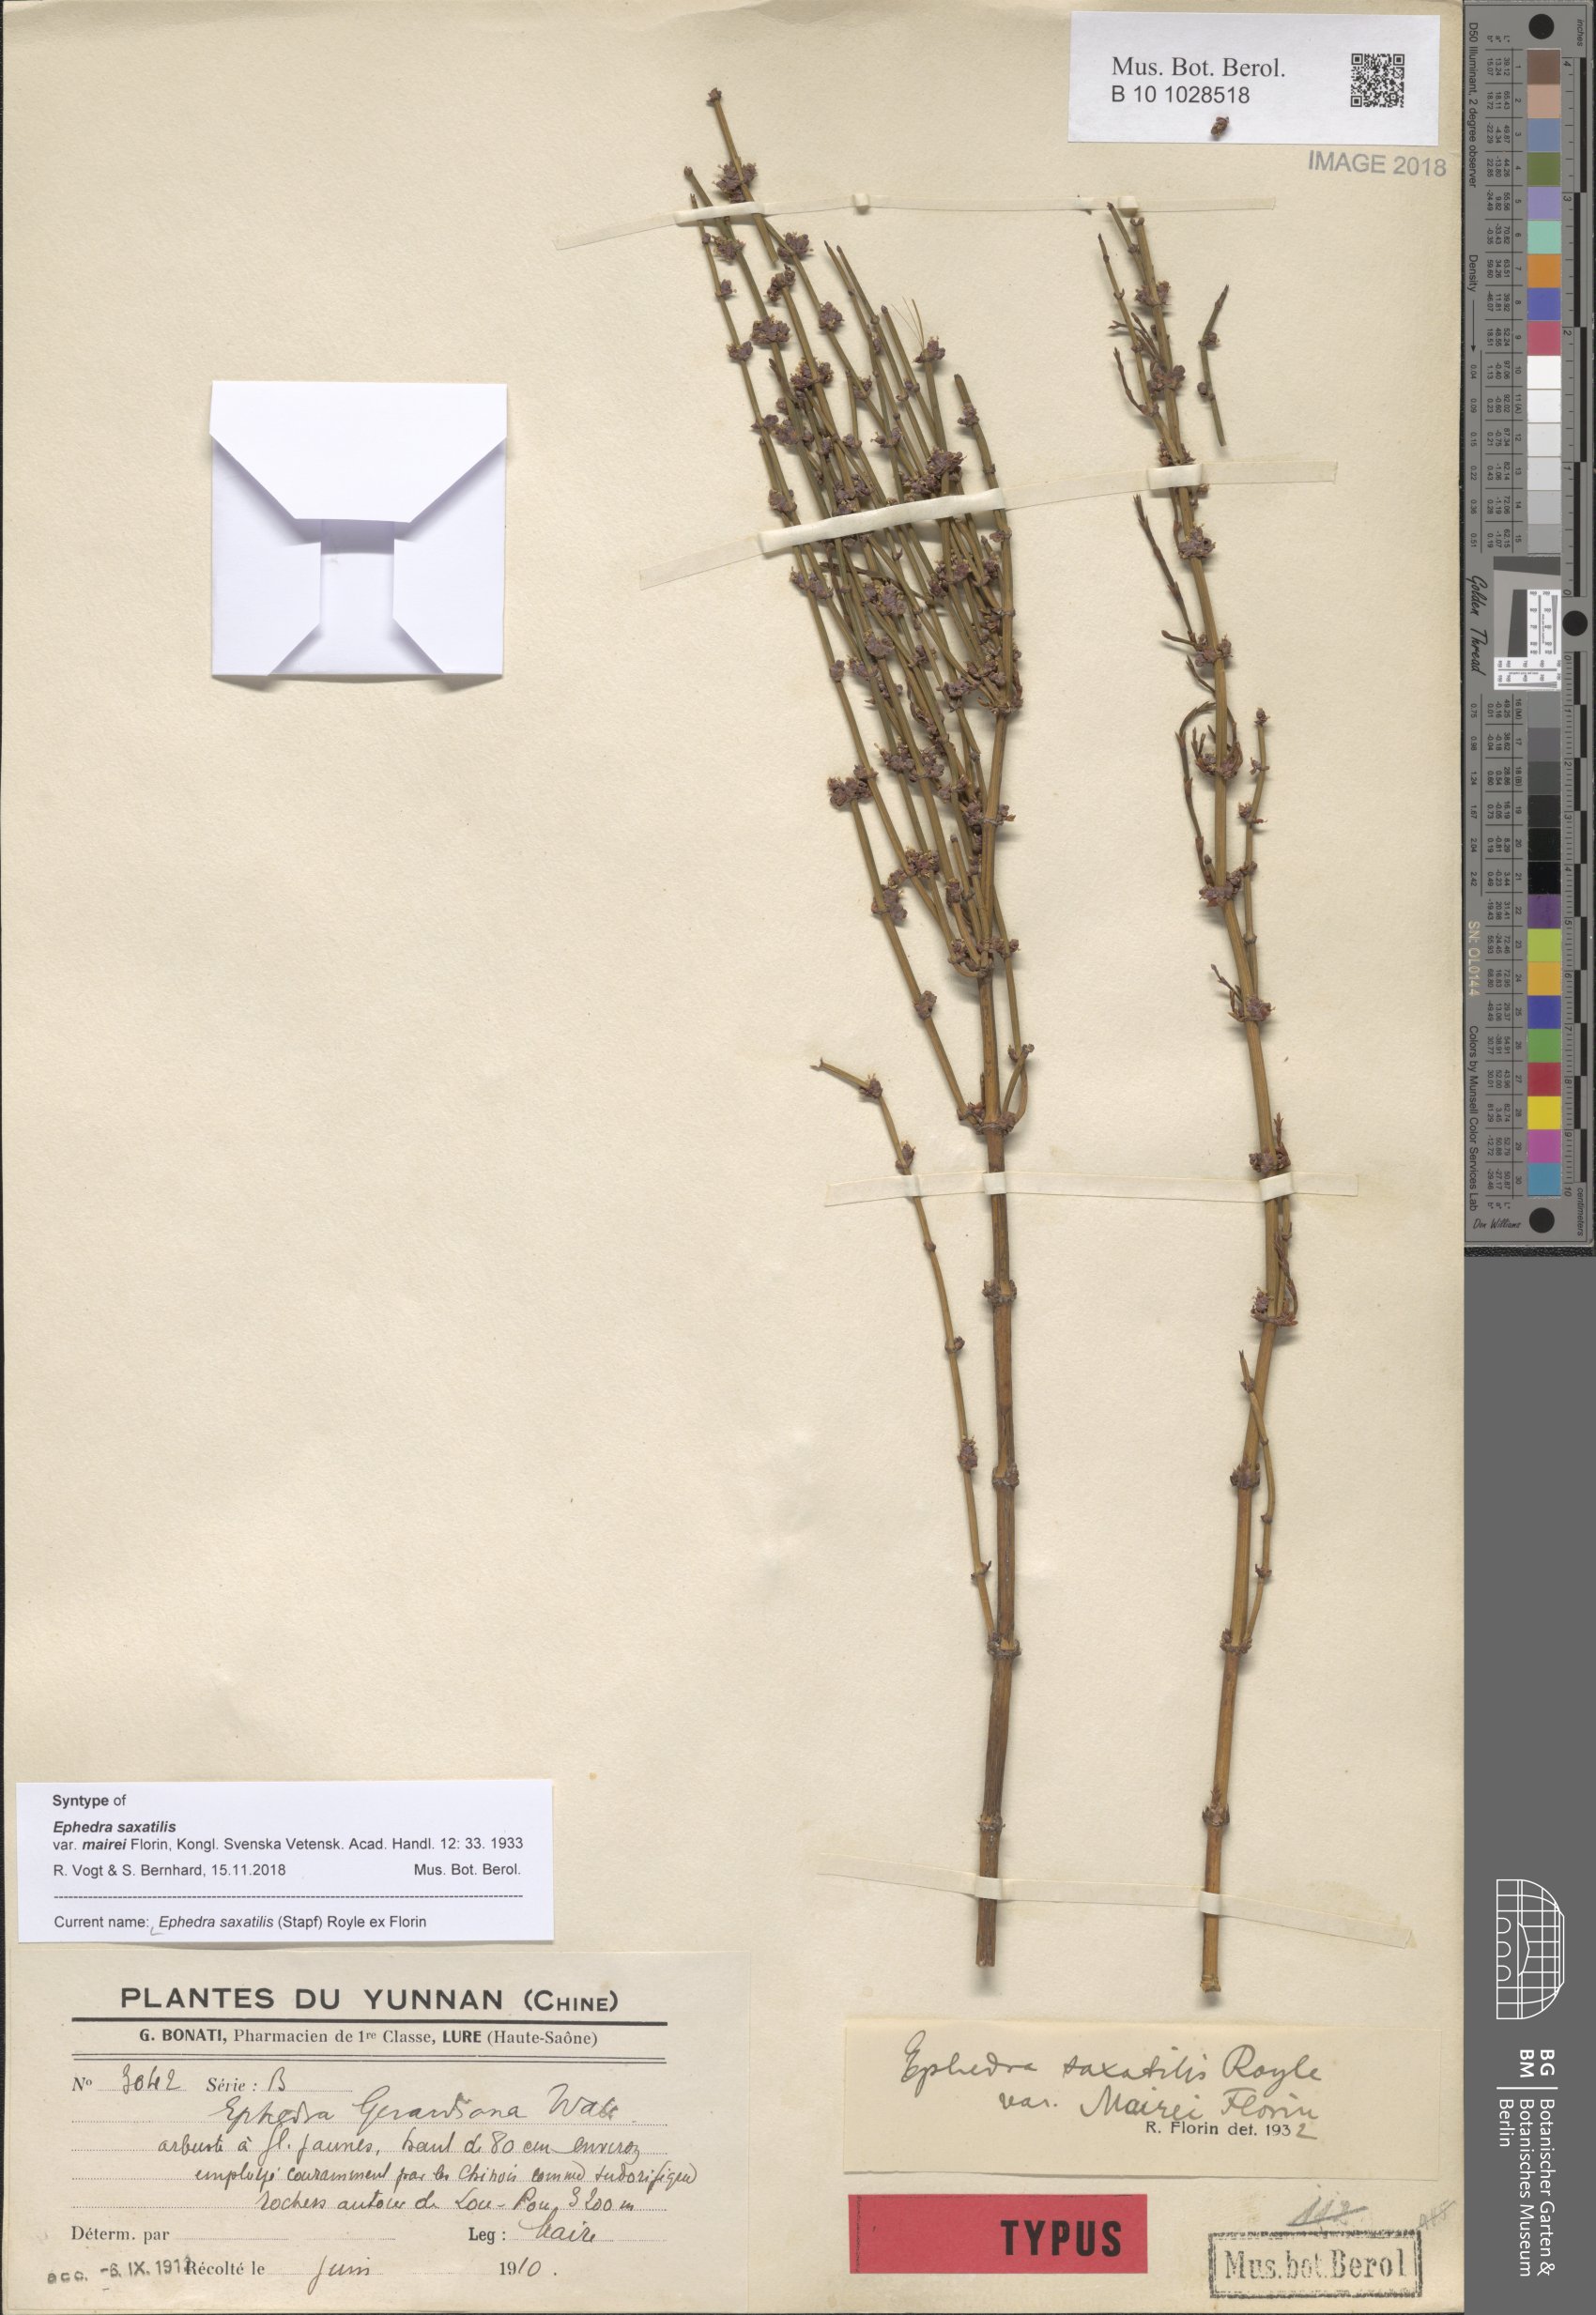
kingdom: Plantae
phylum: Tracheophyta
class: Gnetopsida
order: Ephedrales
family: Ephedraceae
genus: Ephedra
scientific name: Ephedra saxatilis
